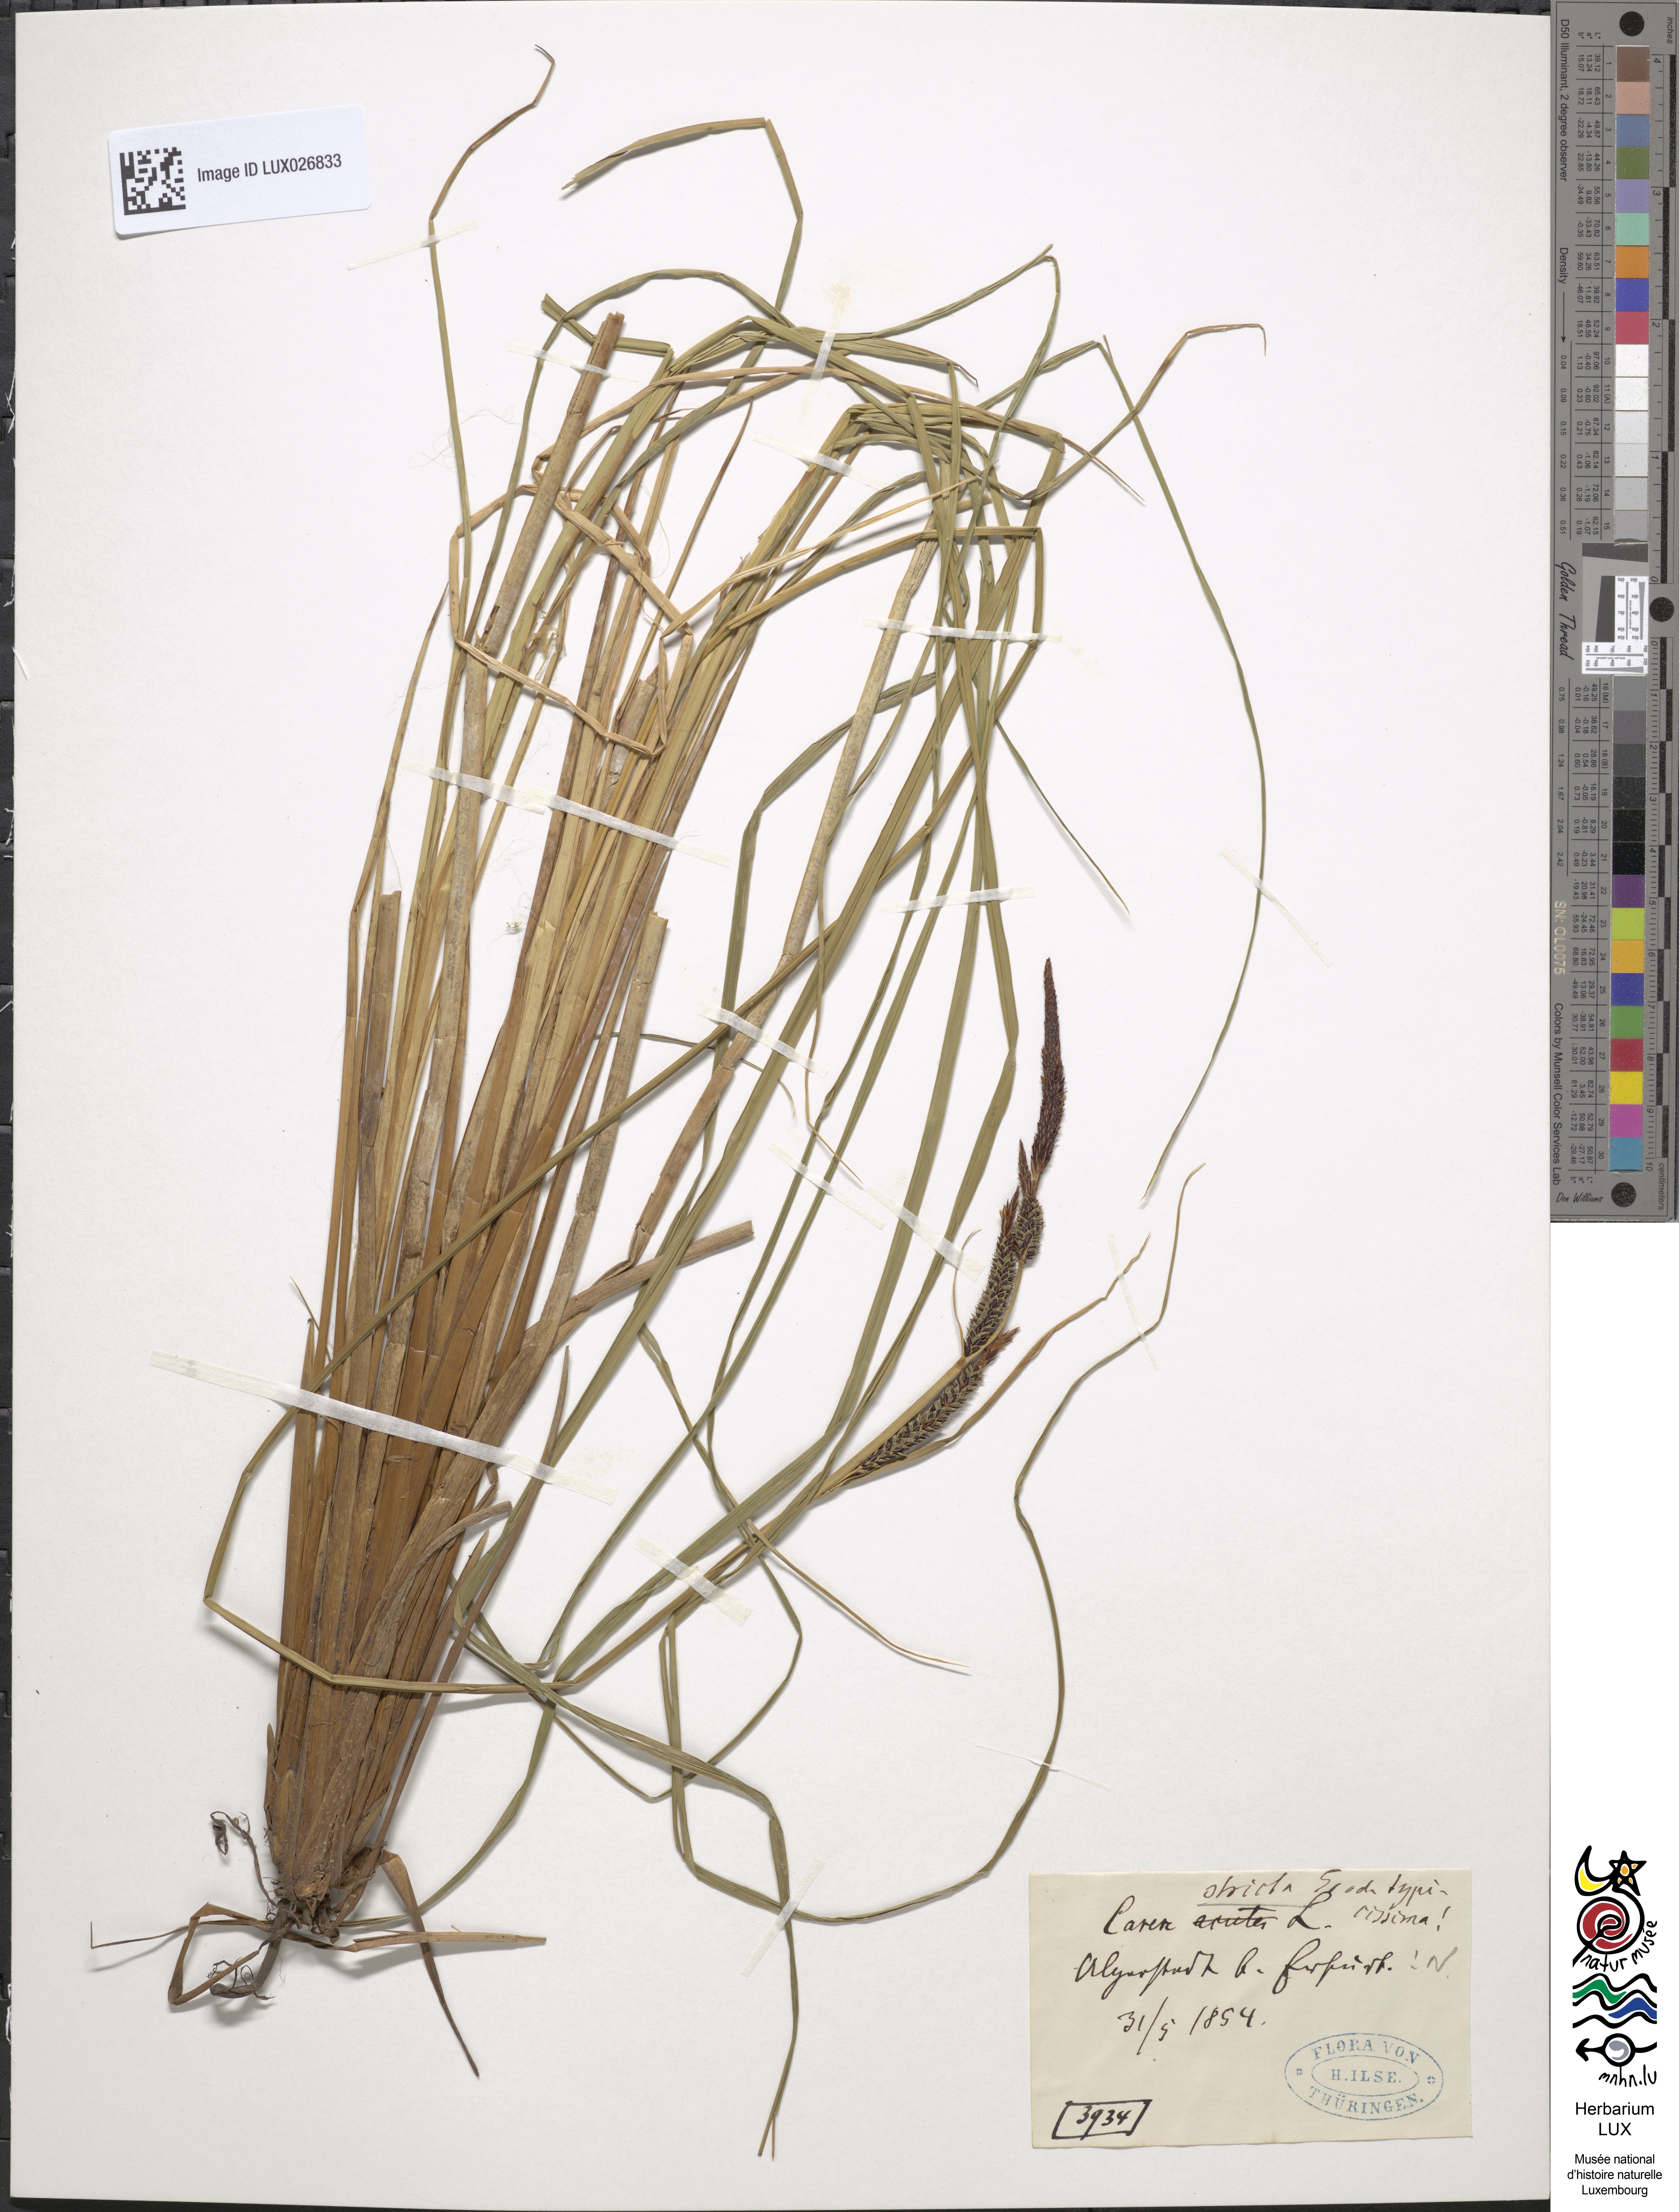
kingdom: Plantae
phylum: Tracheophyta
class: Liliopsida
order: Poales
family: Cyperaceae
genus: Carex
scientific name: Carex elata
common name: Tufted sedge
